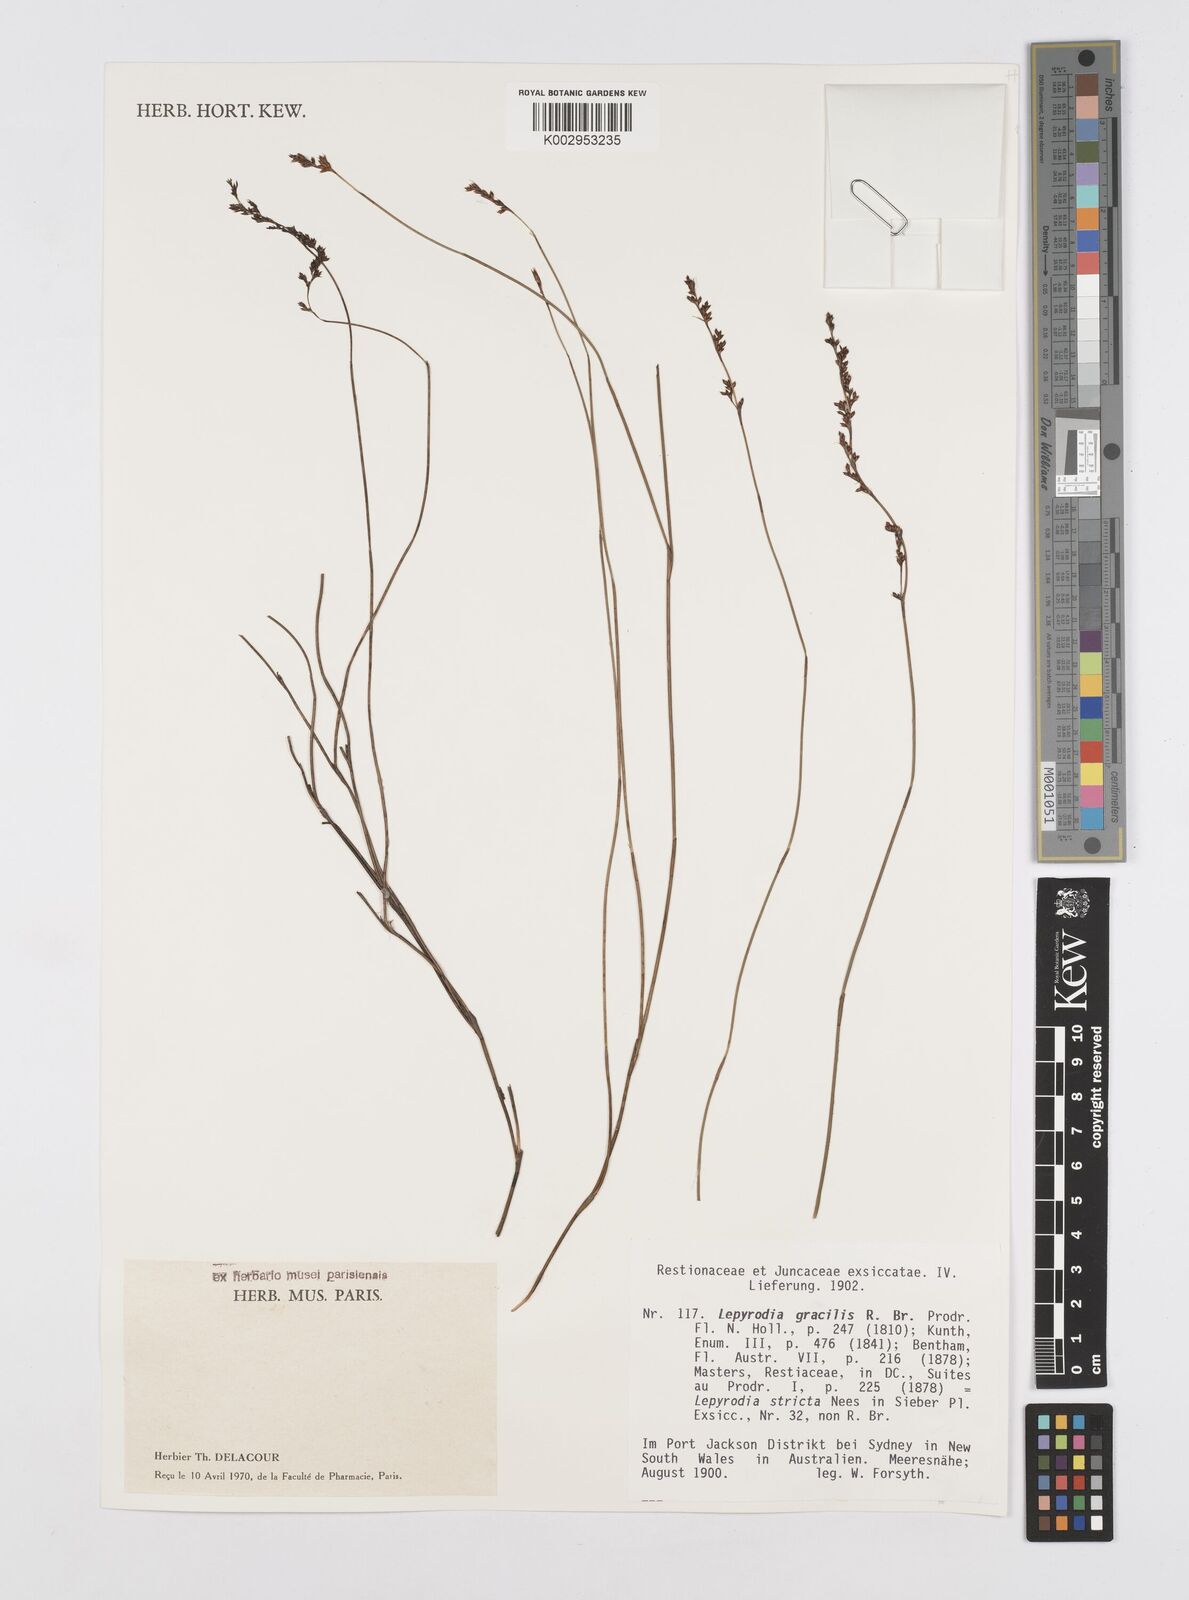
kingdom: Plantae
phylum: Tracheophyta
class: Liliopsida
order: Poales
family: Restionaceae
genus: Sporadanthus
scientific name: Sporadanthus gracilis
